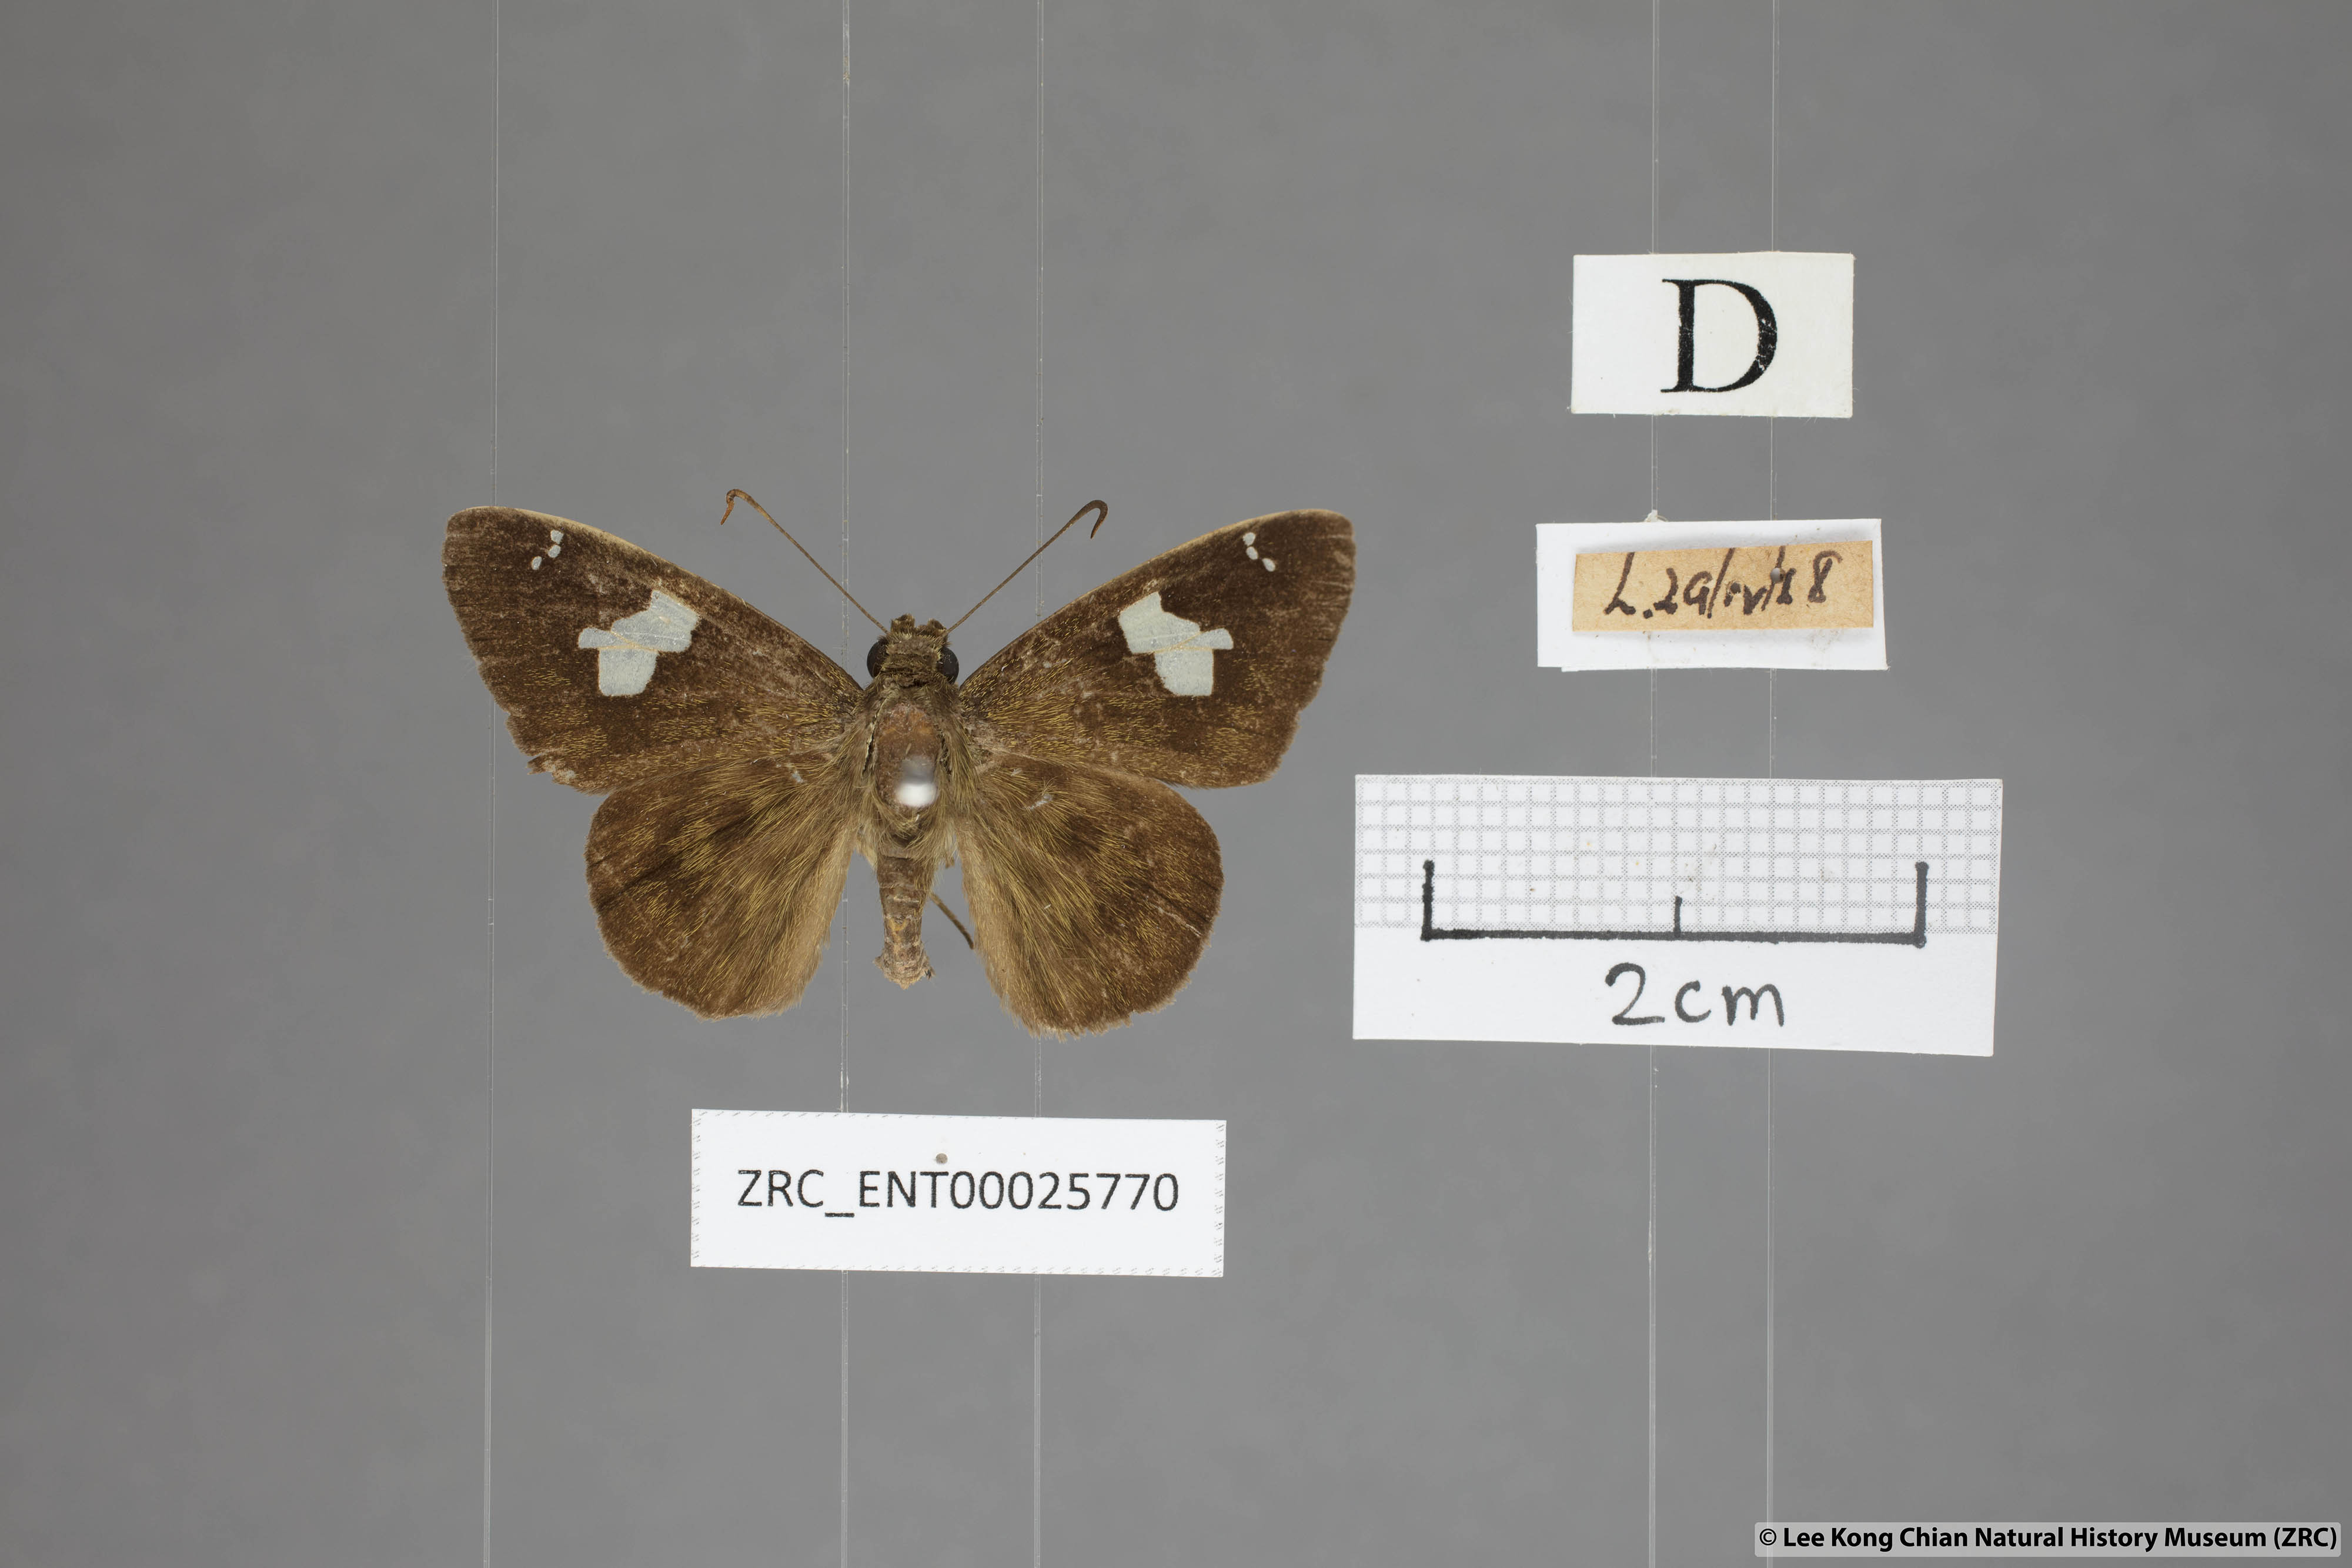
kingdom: Animalia
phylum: Arthropoda
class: Insecta
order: Lepidoptera
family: Hesperiidae
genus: Celaenorrhinus
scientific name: Celaenorrhinus asmara
